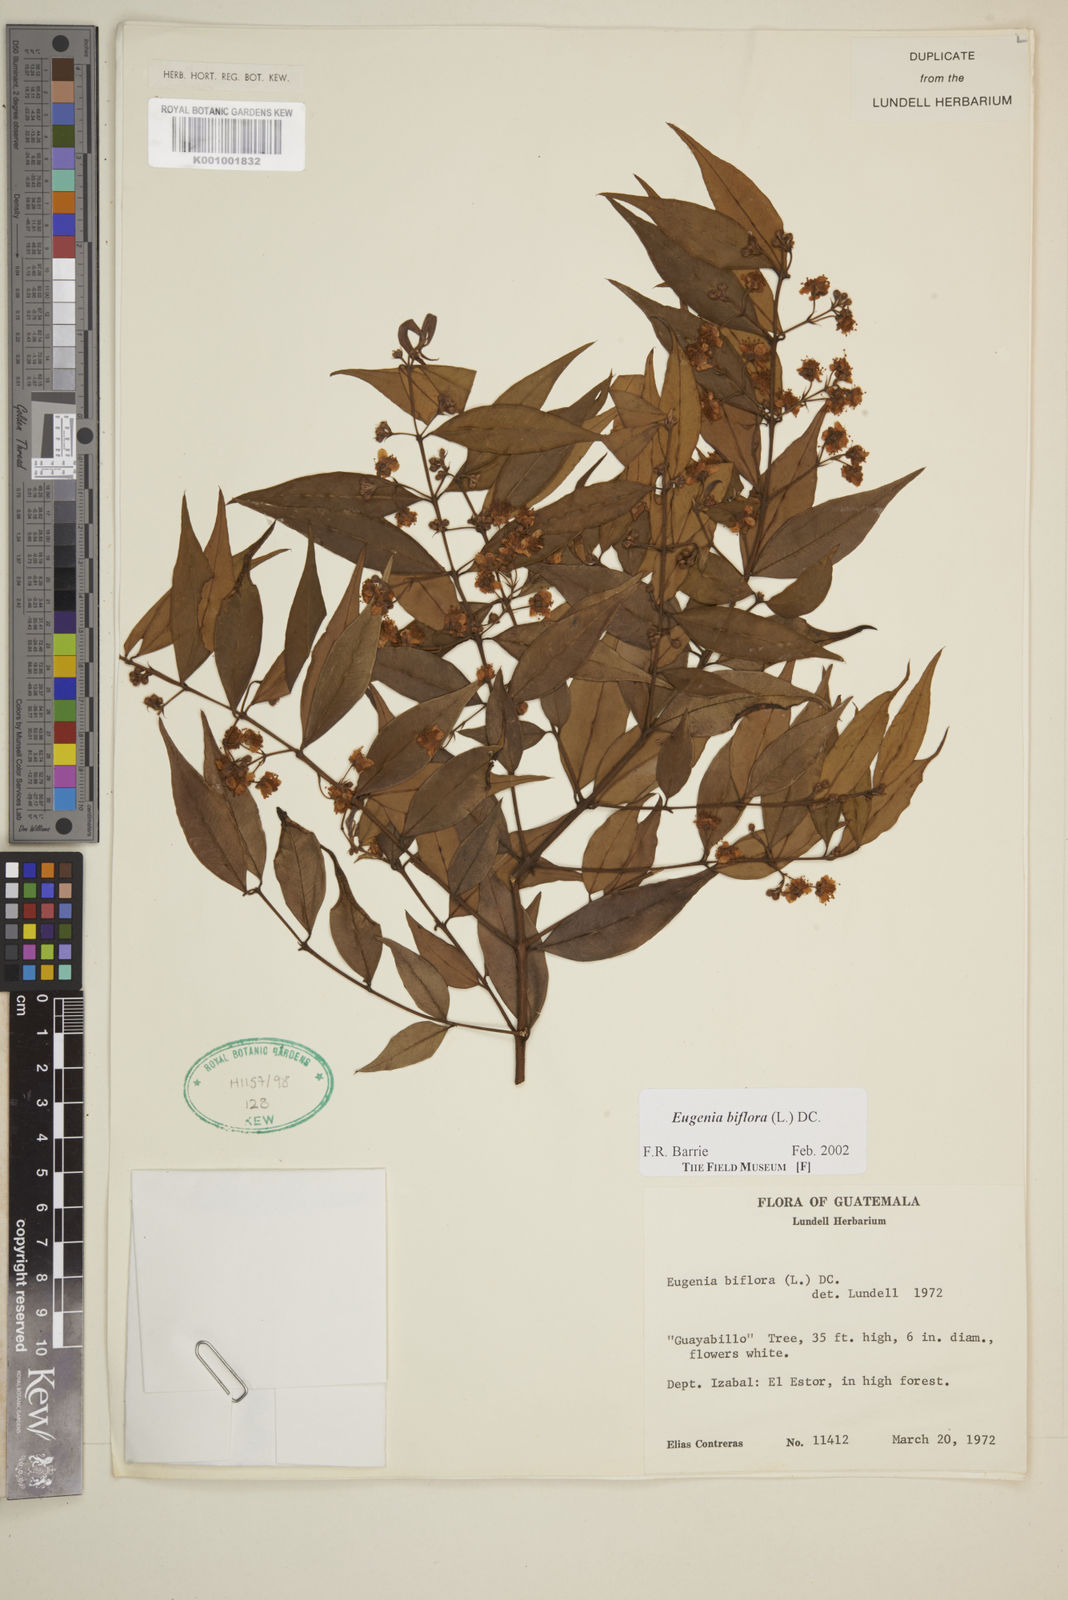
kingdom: Plantae
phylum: Tracheophyta
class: Magnoliopsida
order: Myrtales
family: Myrtaceae
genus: Eugenia
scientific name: Eugenia capuli
